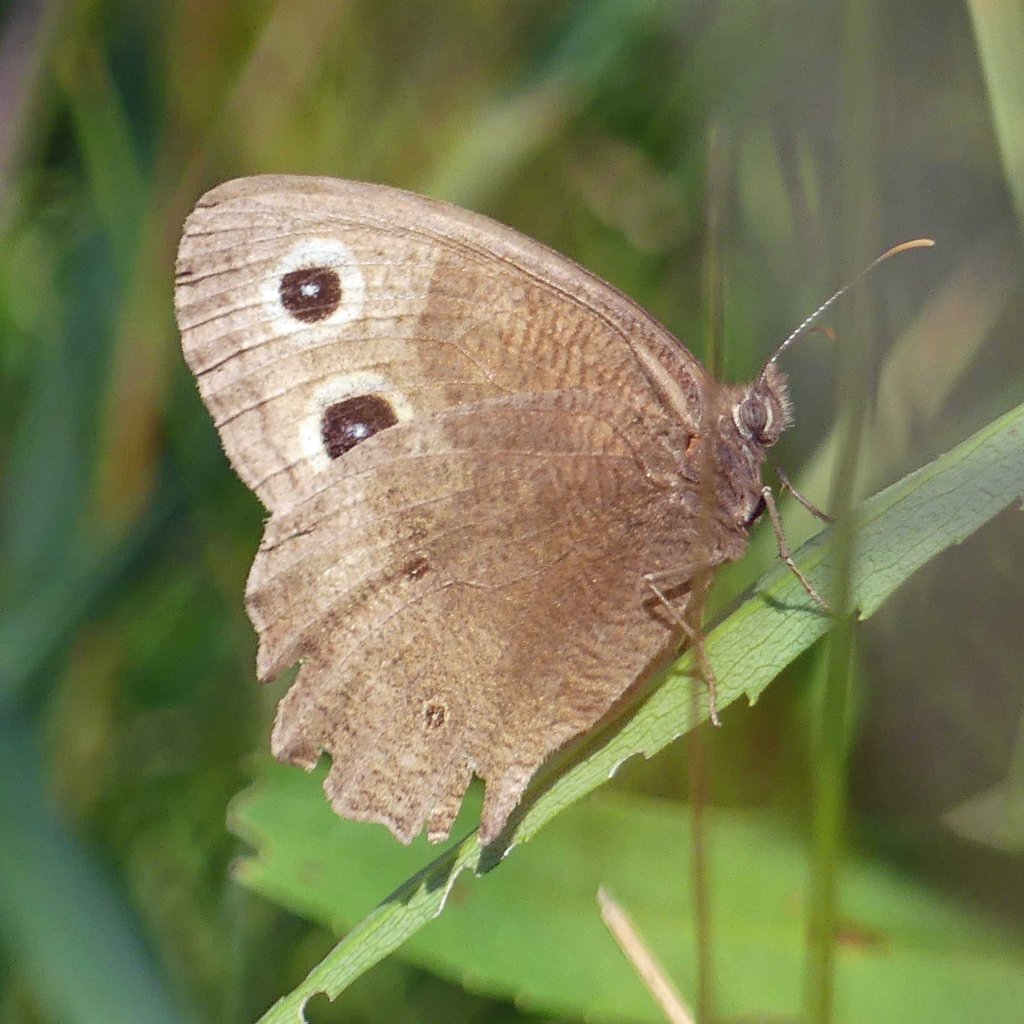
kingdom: Animalia
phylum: Arthropoda
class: Insecta
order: Lepidoptera
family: Nymphalidae
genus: Cercyonis
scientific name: Cercyonis pegala
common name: Common Wood-Nymph
